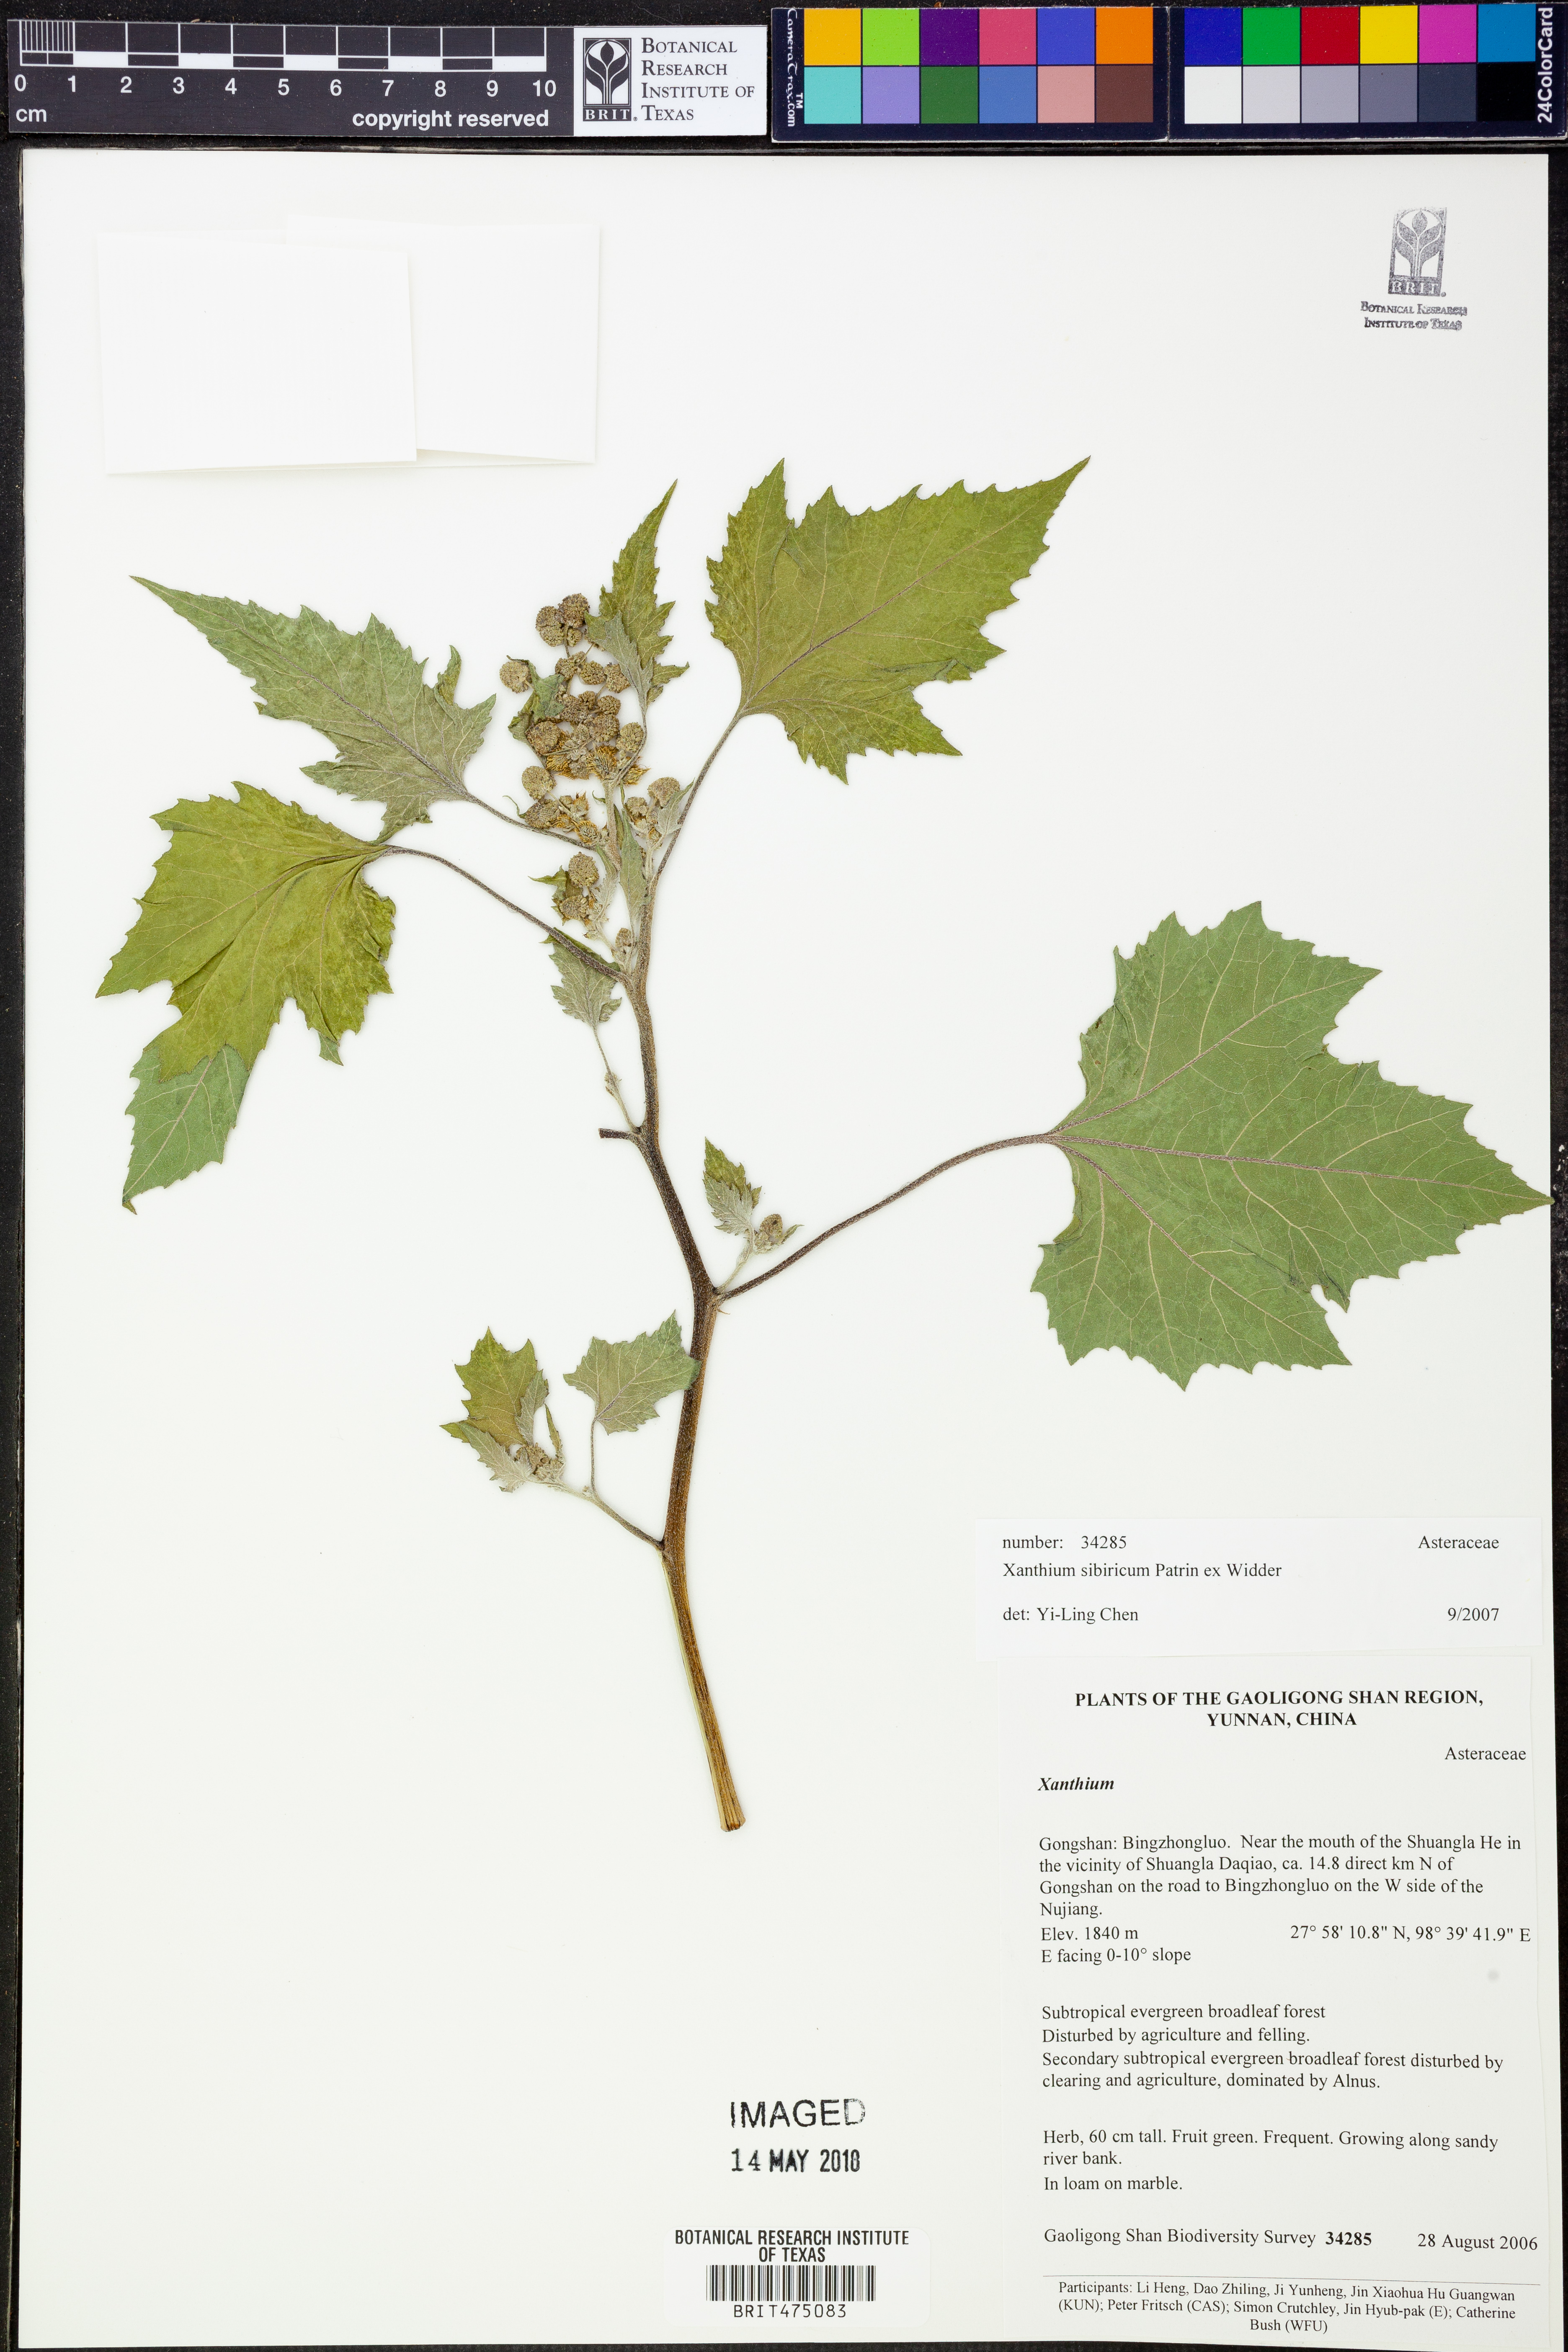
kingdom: Plantae
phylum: Tracheophyta
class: Magnoliopsida
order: Asterales
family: Asteraceae
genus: Xanthium
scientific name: Xanthium strumarium
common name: Rough cocklebur
